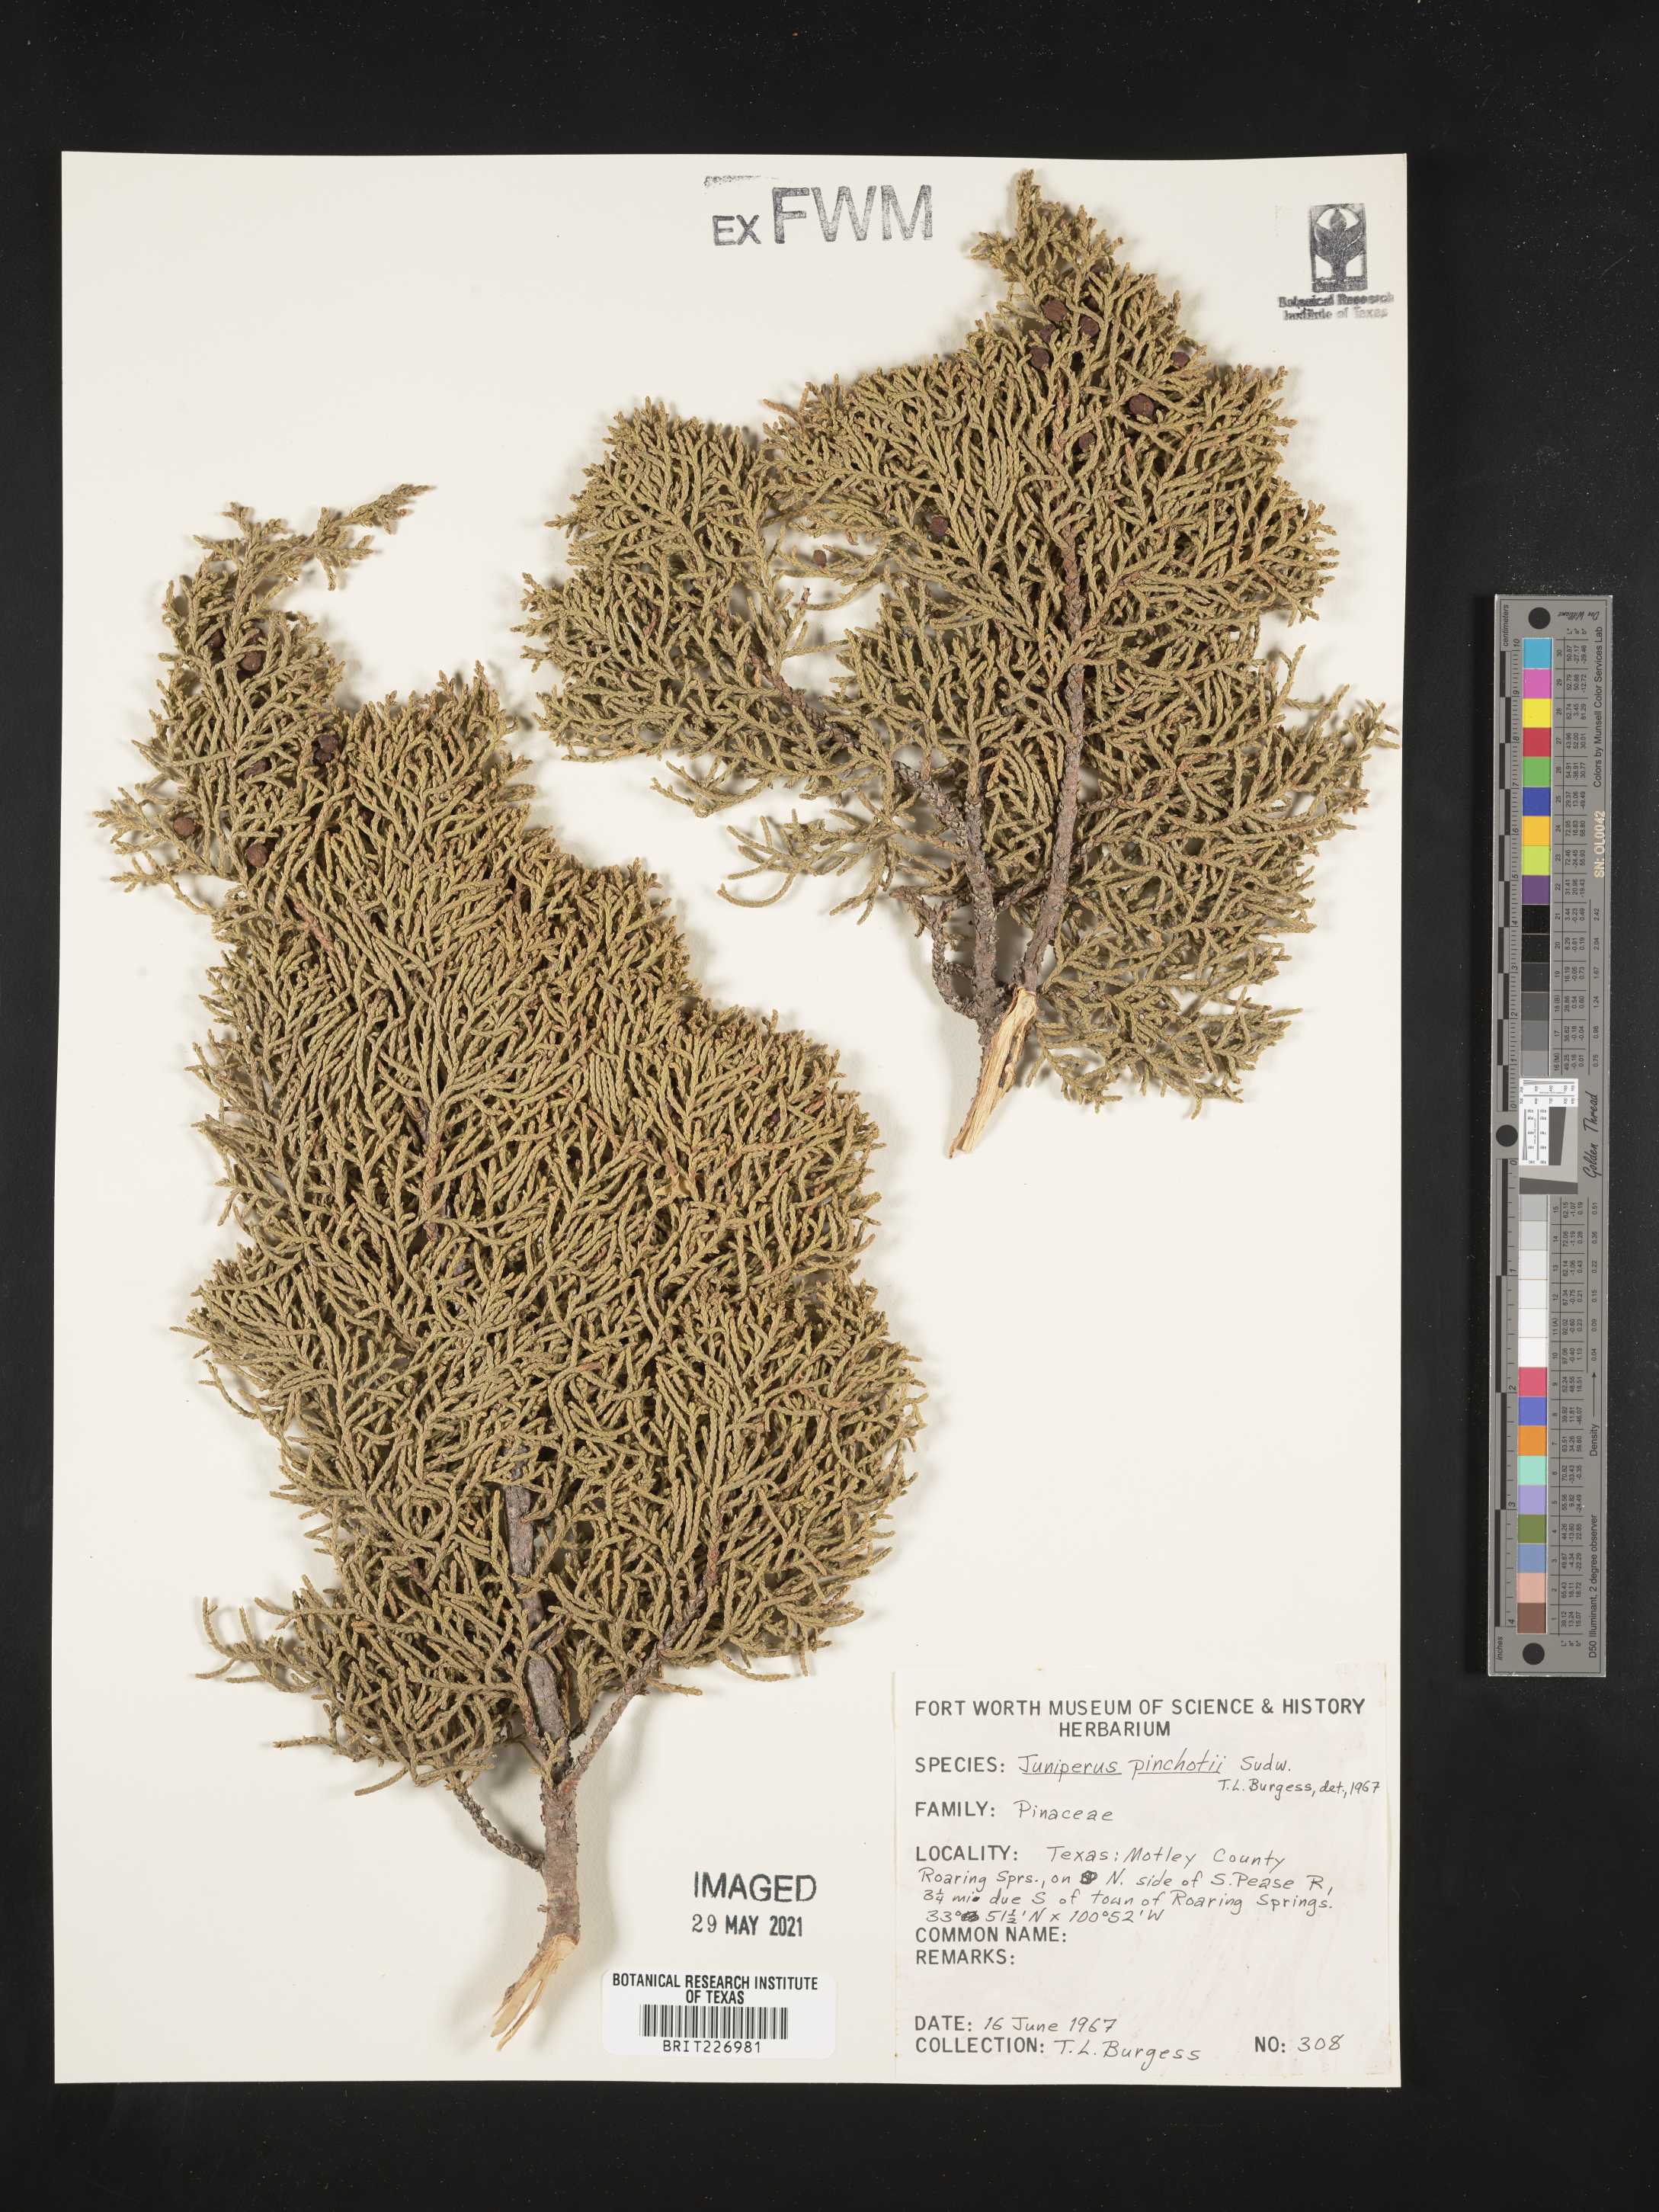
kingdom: Plantae
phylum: Tracheophyta
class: Pinopsida
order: Pinales
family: Cupressaceae
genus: Juniperus
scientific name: Juniperus pinchotii
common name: Pinchot juniper
